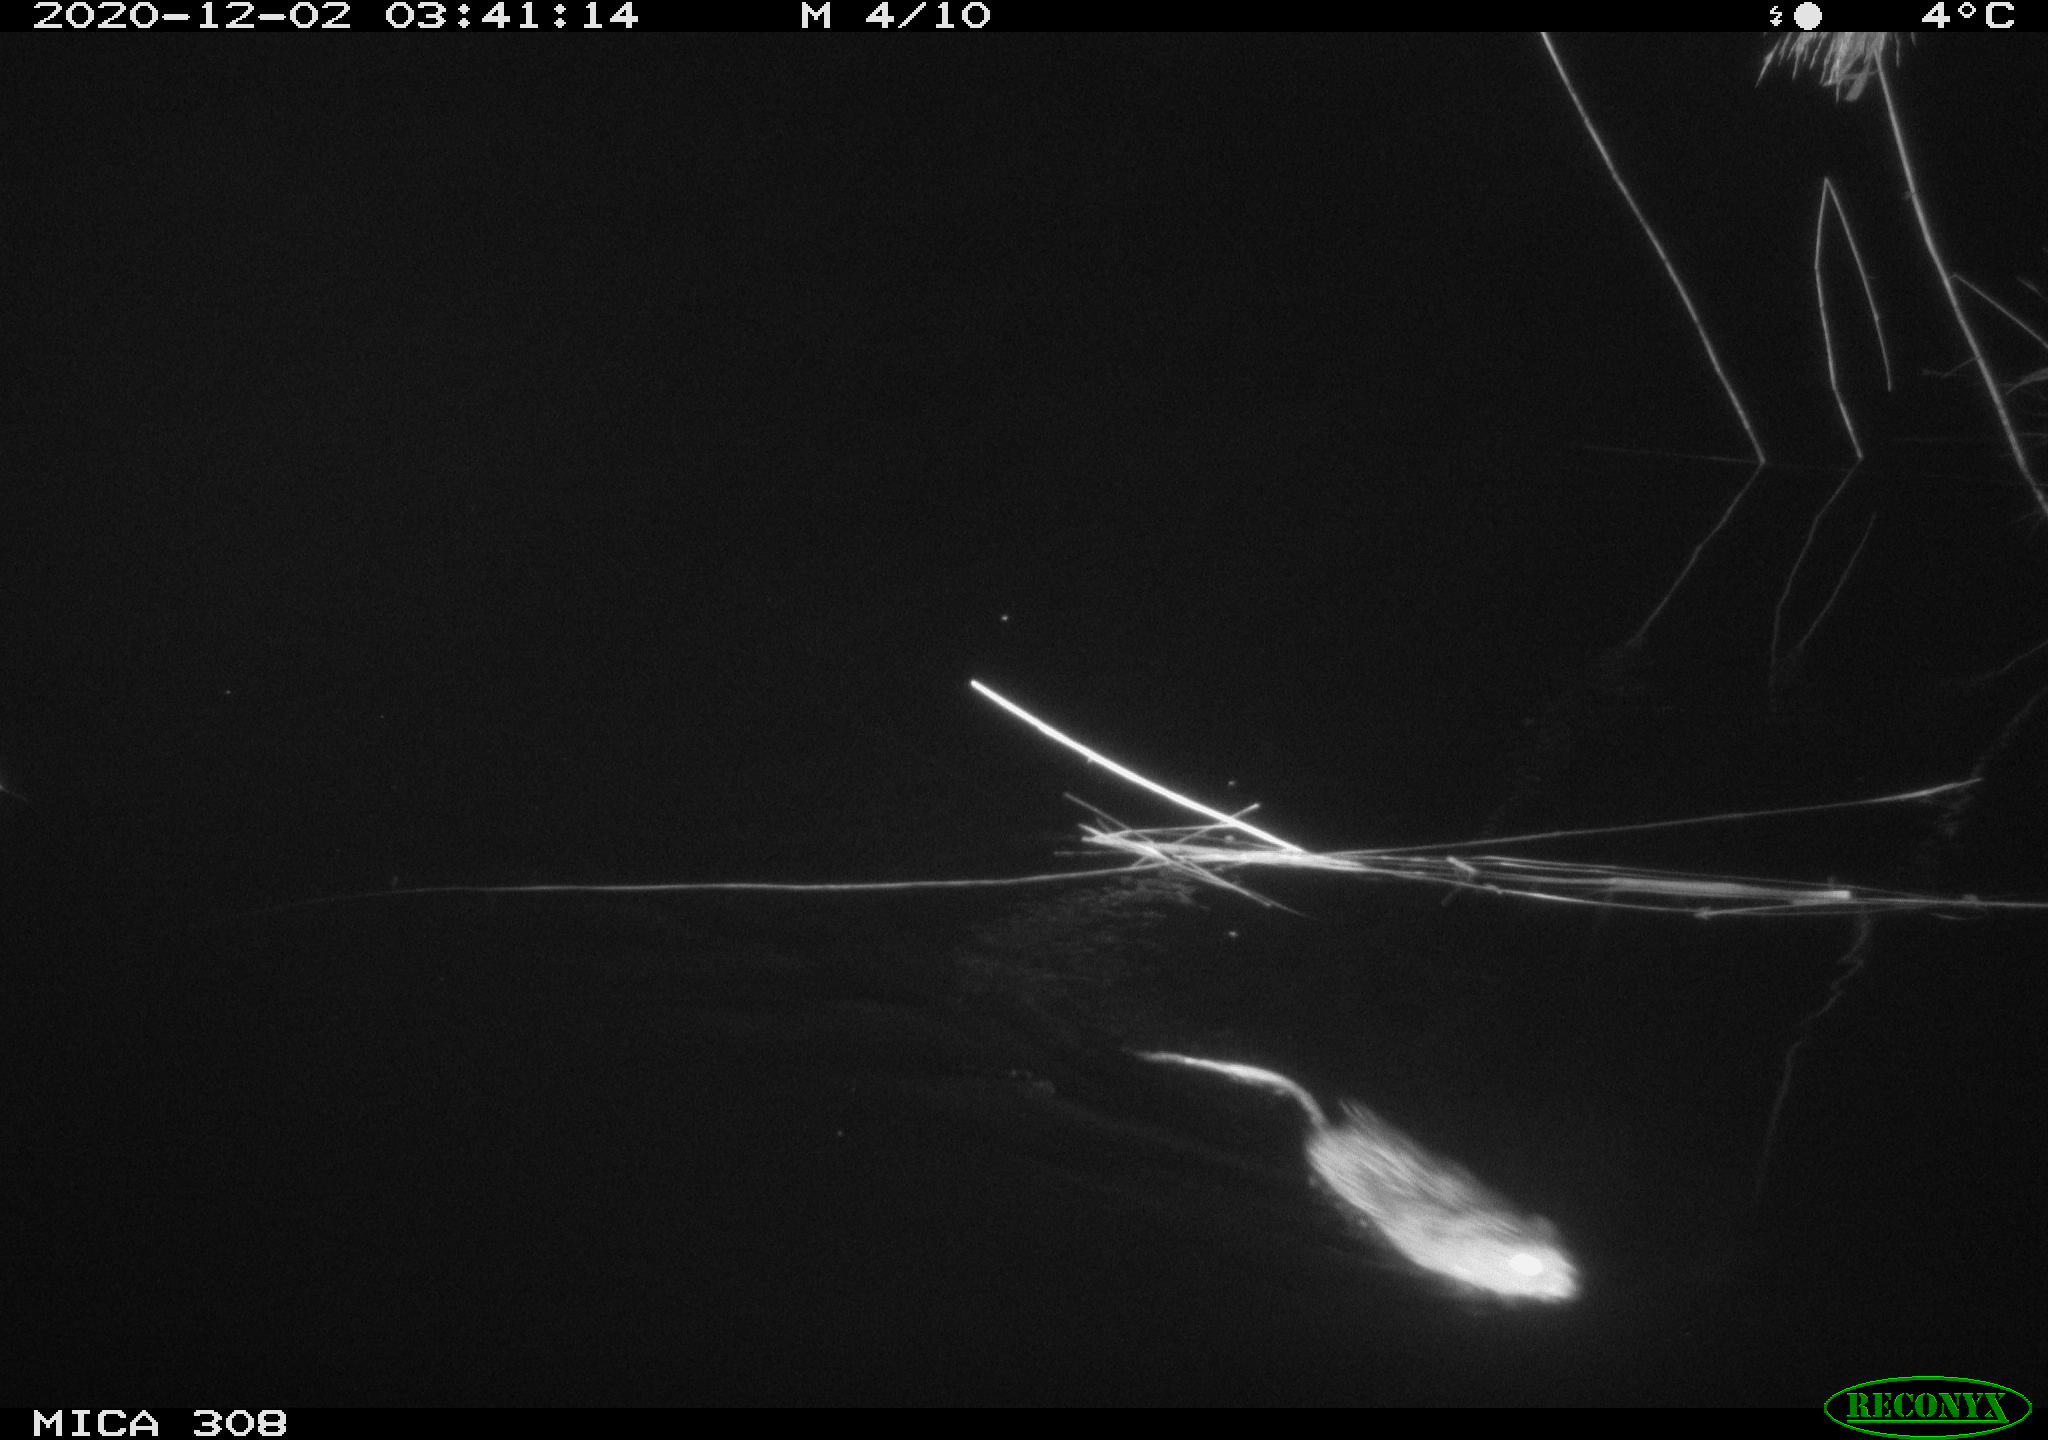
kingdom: Animalia
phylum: Chordata
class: Mammalia
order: Rodentia
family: Cricetidae
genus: Ondatra
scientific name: Ondatra zibethicus
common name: Muskrat
